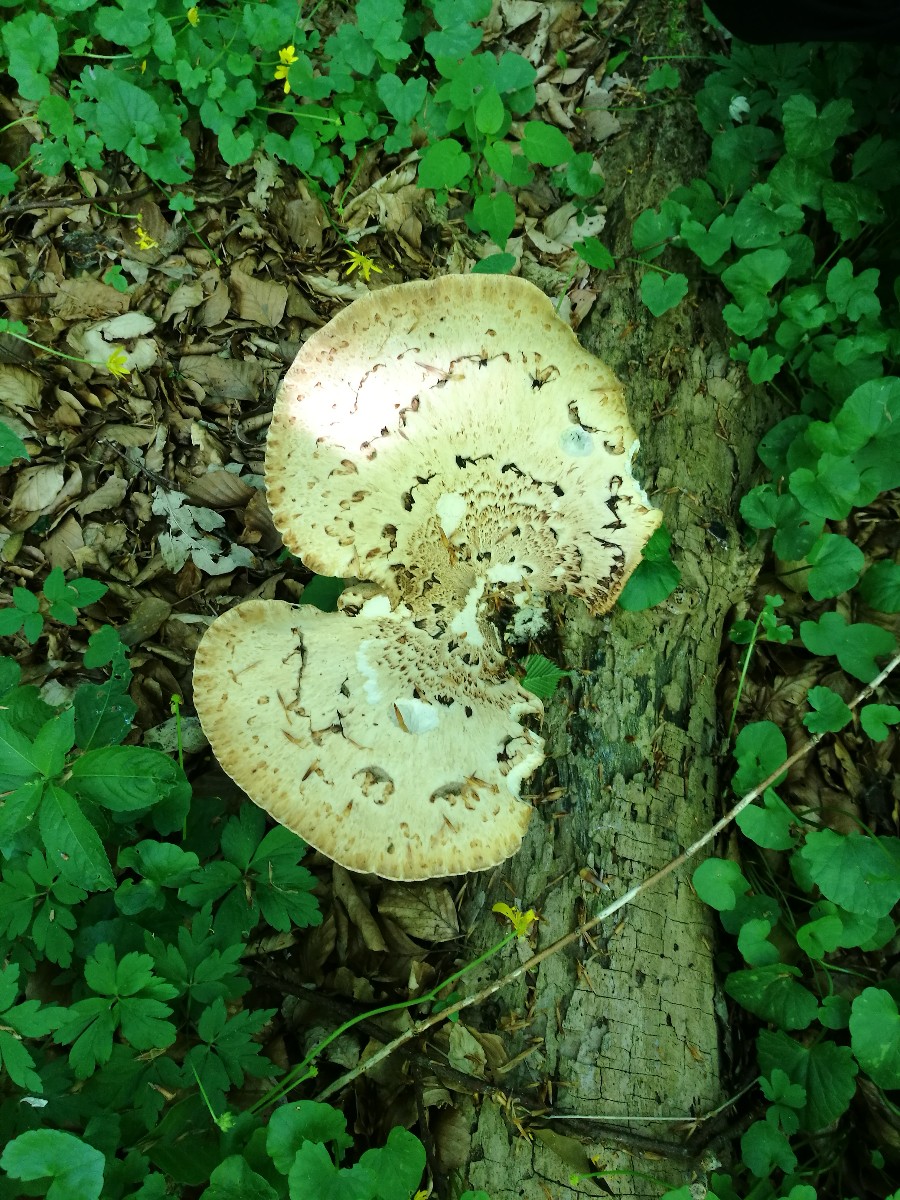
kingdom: Fungi
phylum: Basidiomycota
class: Agaricomycetes
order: Polyporales
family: Polyporaceae
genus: Cerioporus
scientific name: Cerioporus squamosus
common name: skællet stilkporesvamp
